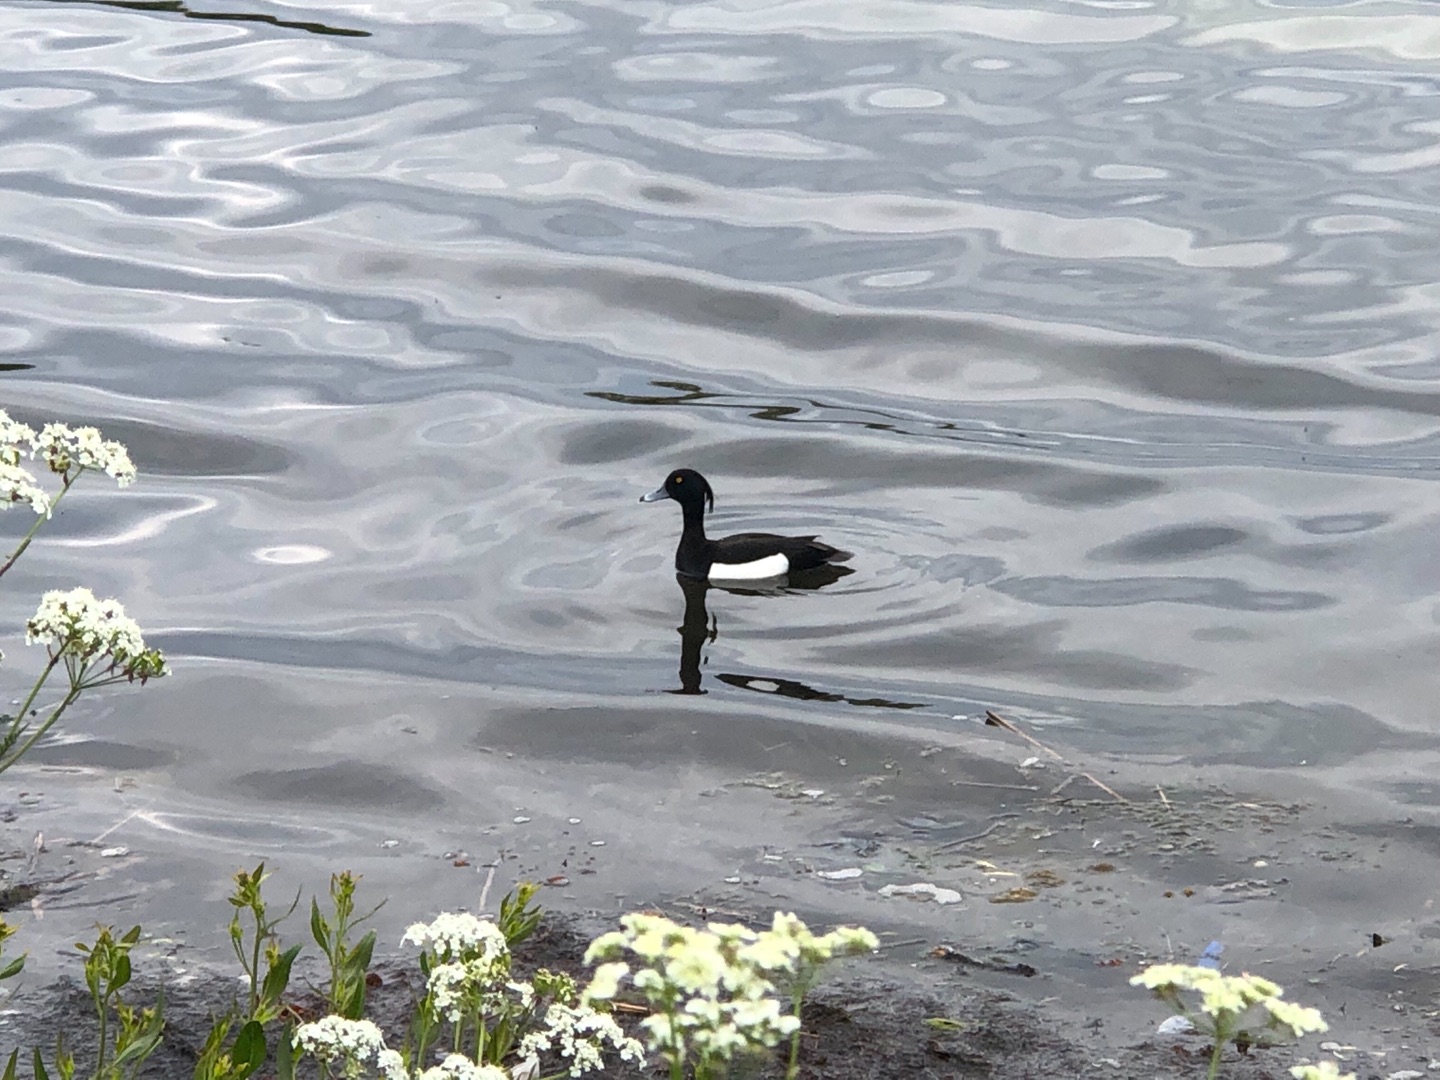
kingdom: Animalia
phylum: Chordata
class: Aves
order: Anseriformes
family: Anatidae
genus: Aythya
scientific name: Aythya fuligula
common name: Troldand
